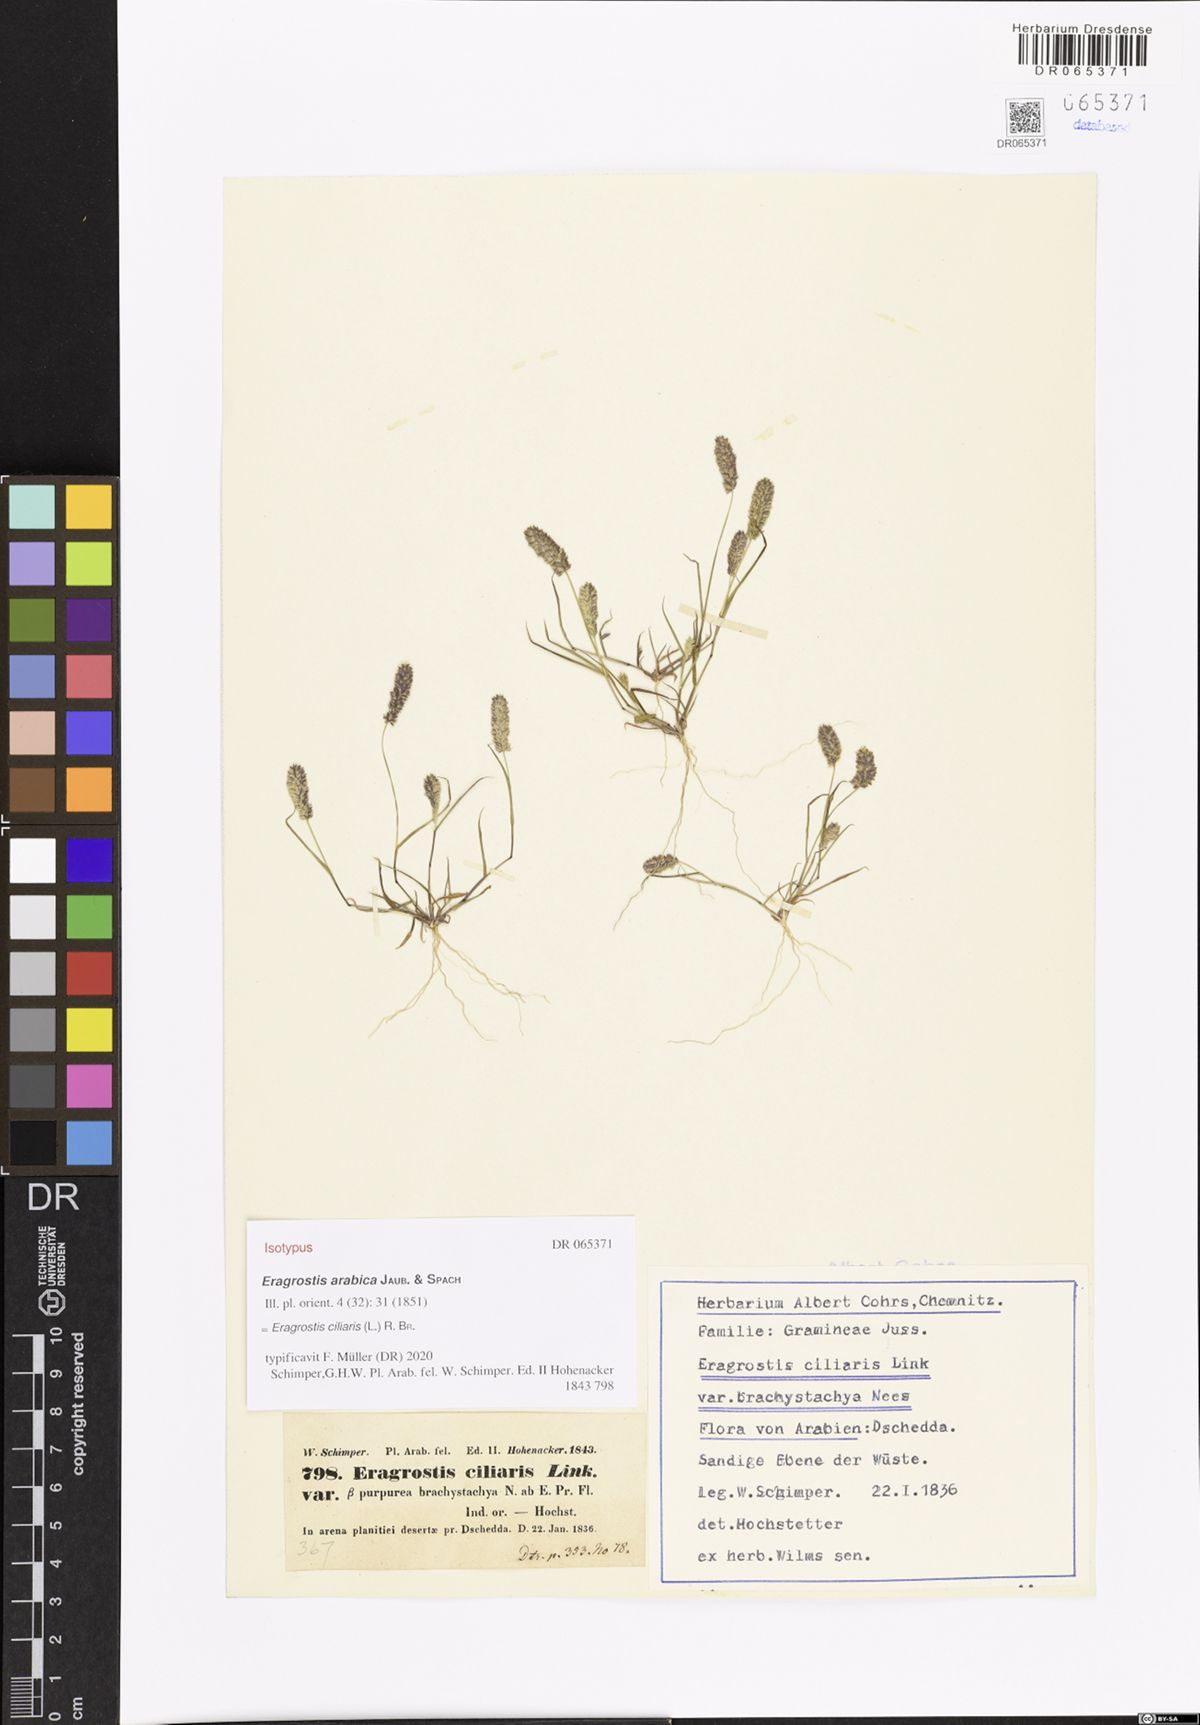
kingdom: Plantae
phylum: Tracheophyta
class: Liliopsida
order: Poales
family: Poaceae
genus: Eragrostis
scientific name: Eragrostis ciliaris
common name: Gophertail lovegrass
